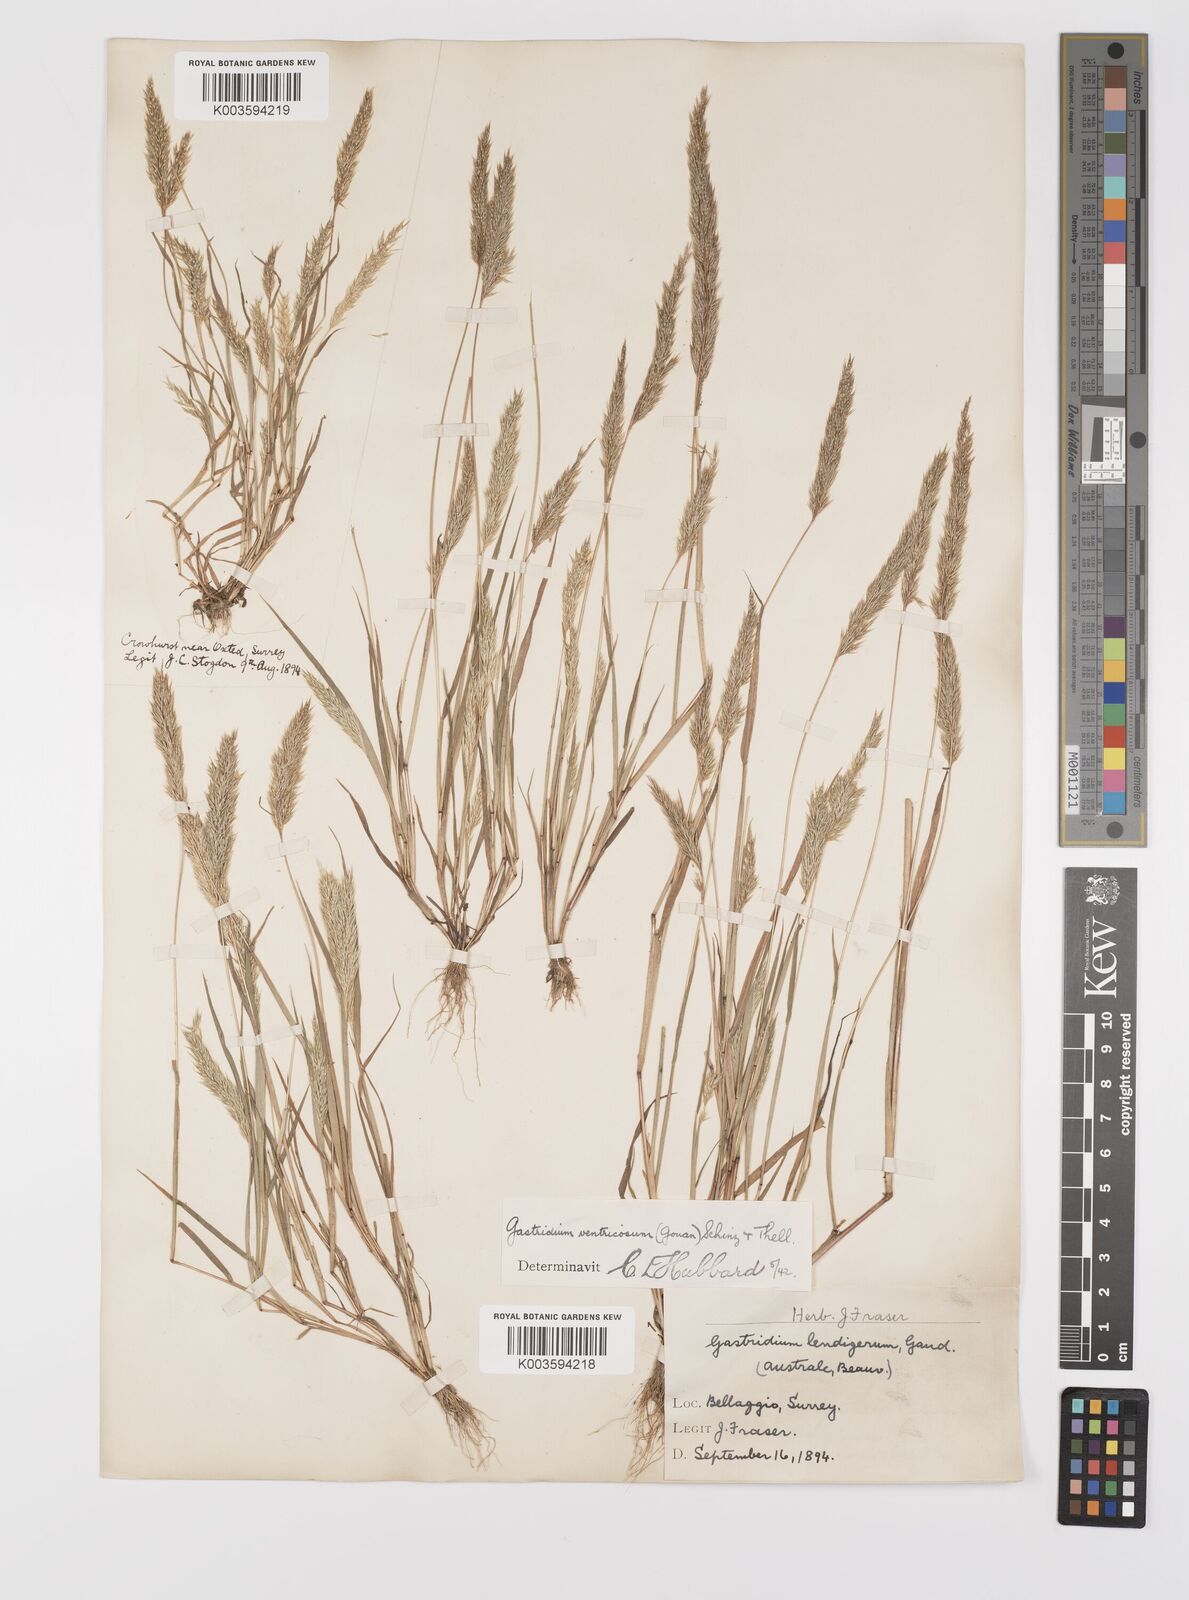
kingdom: Plantae
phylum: Tracheophyta
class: Liliopsida
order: Poales
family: Poaceae
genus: Gastridium
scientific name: Gastridium ventricosum
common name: Nit-grass
